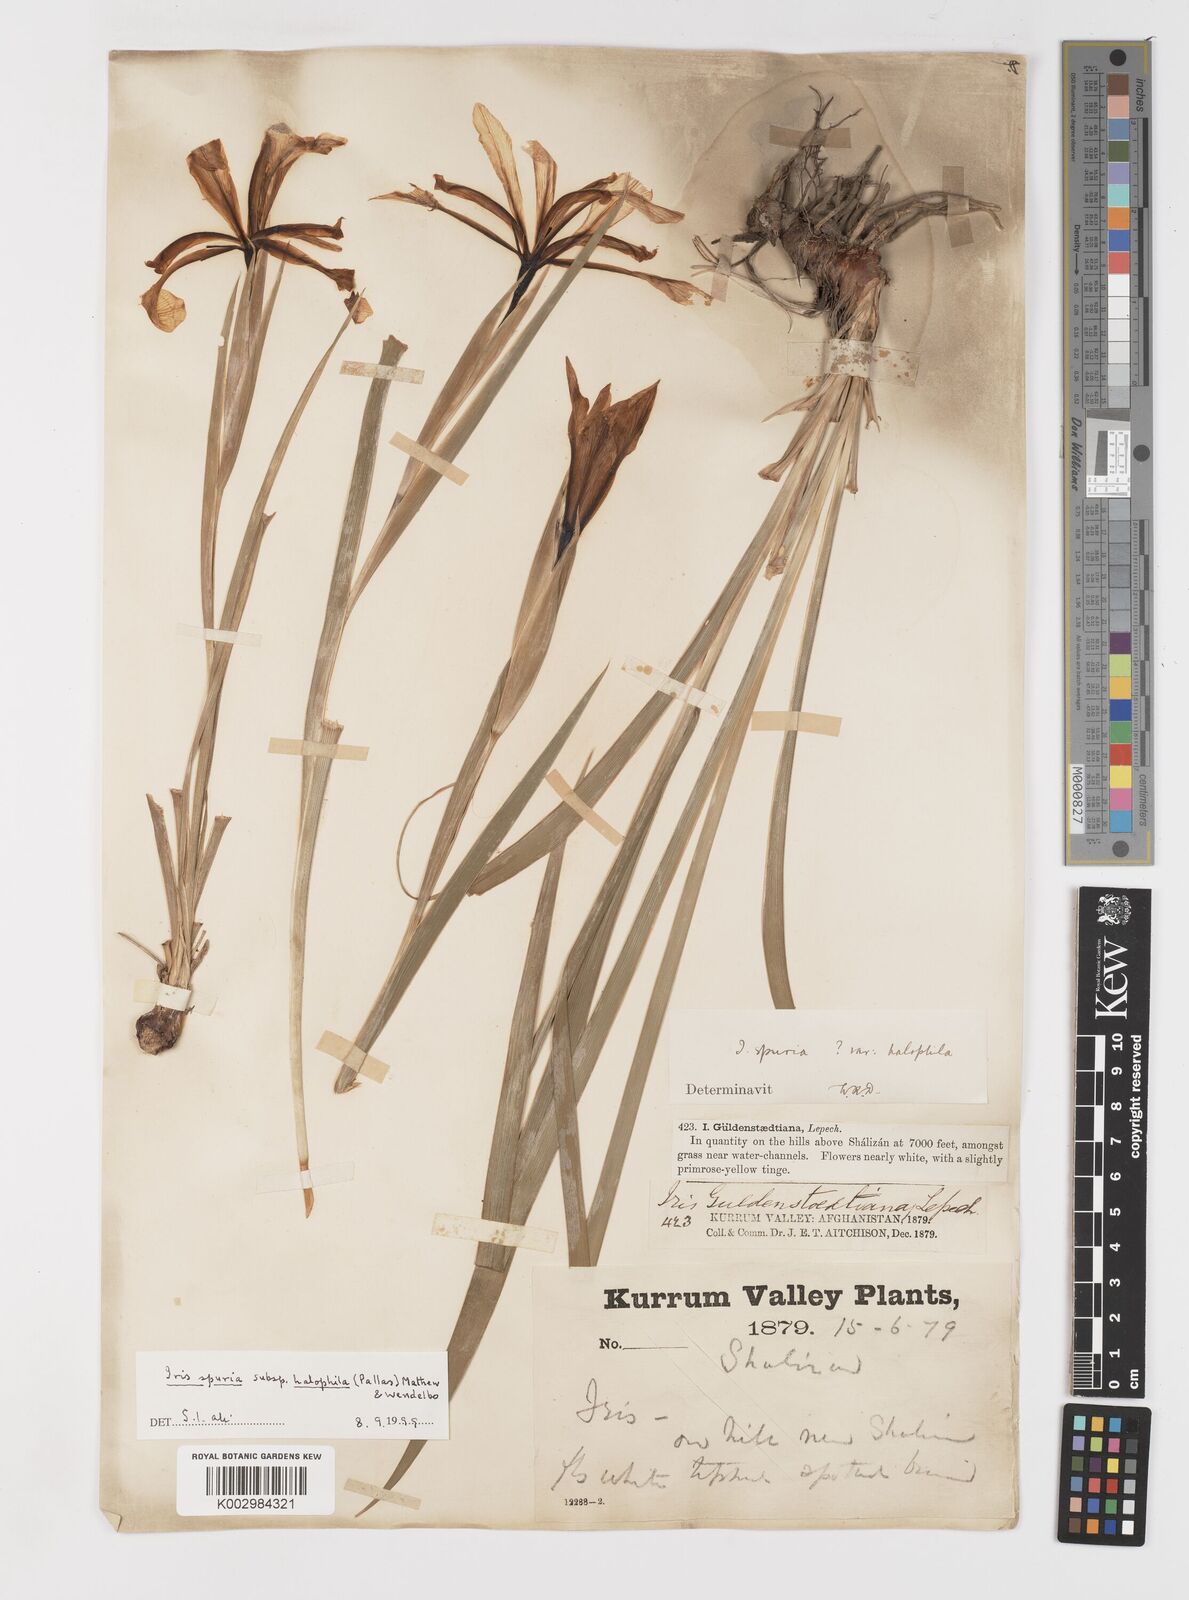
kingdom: Plantae
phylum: Tracheophyta
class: Liliopsida
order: Asparagales
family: Iridaceae
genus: Iris
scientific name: Iris spuria
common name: Blue iris
